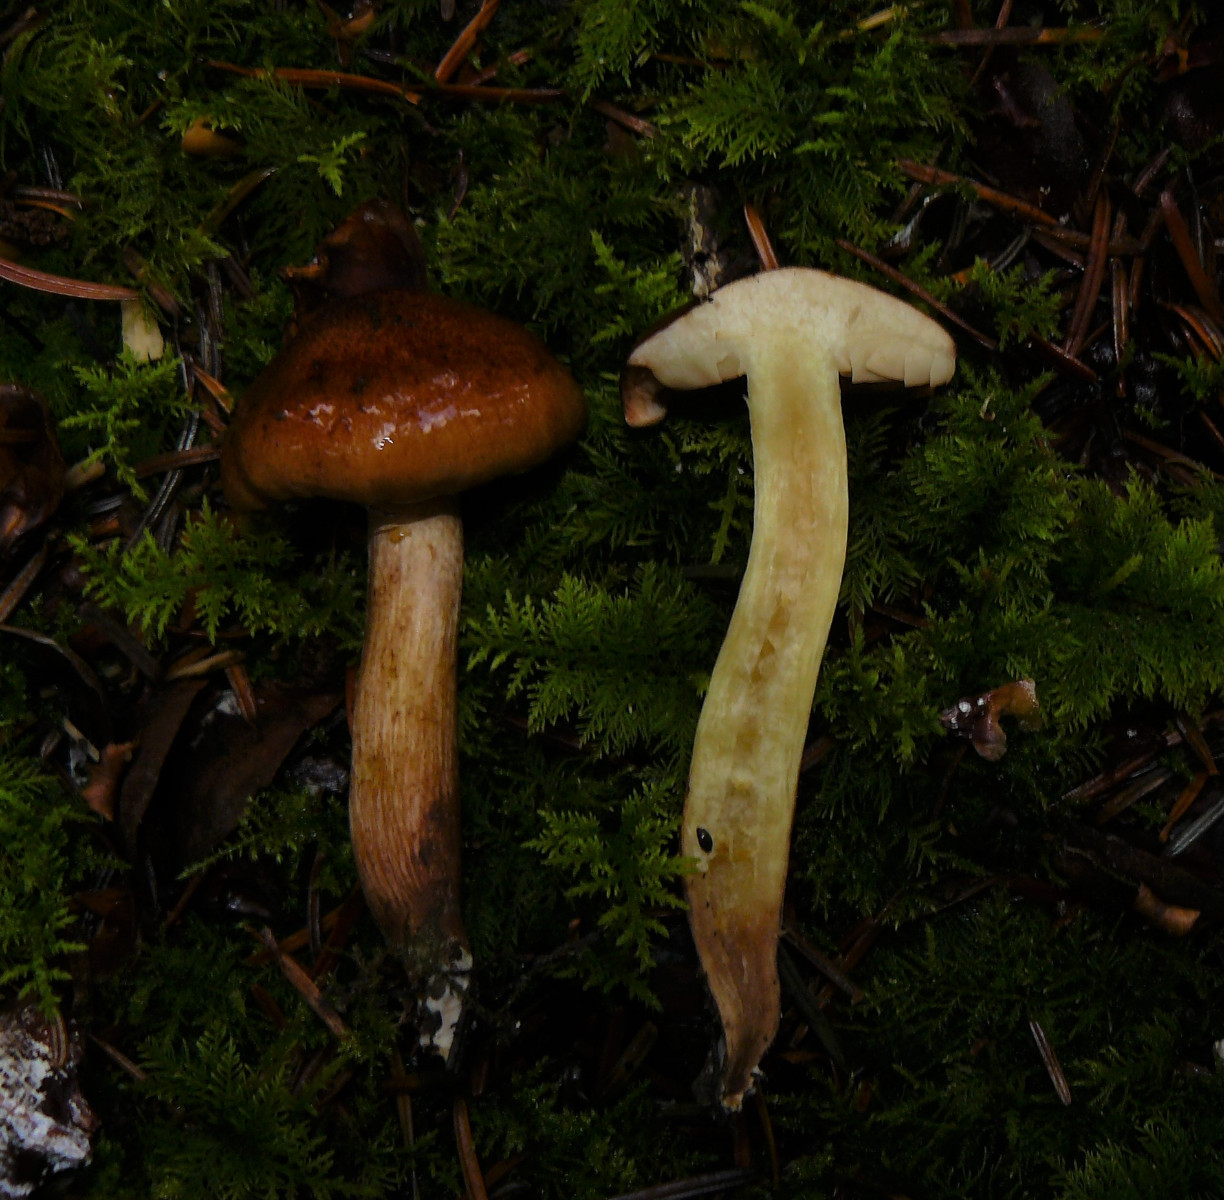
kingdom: Fungi
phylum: Basidiomycota
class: Agaricomycetes
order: Agaricales
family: Tricholomataceae
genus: Tricholoma
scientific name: Tricholoma fulvum
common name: birke-ridderhat
